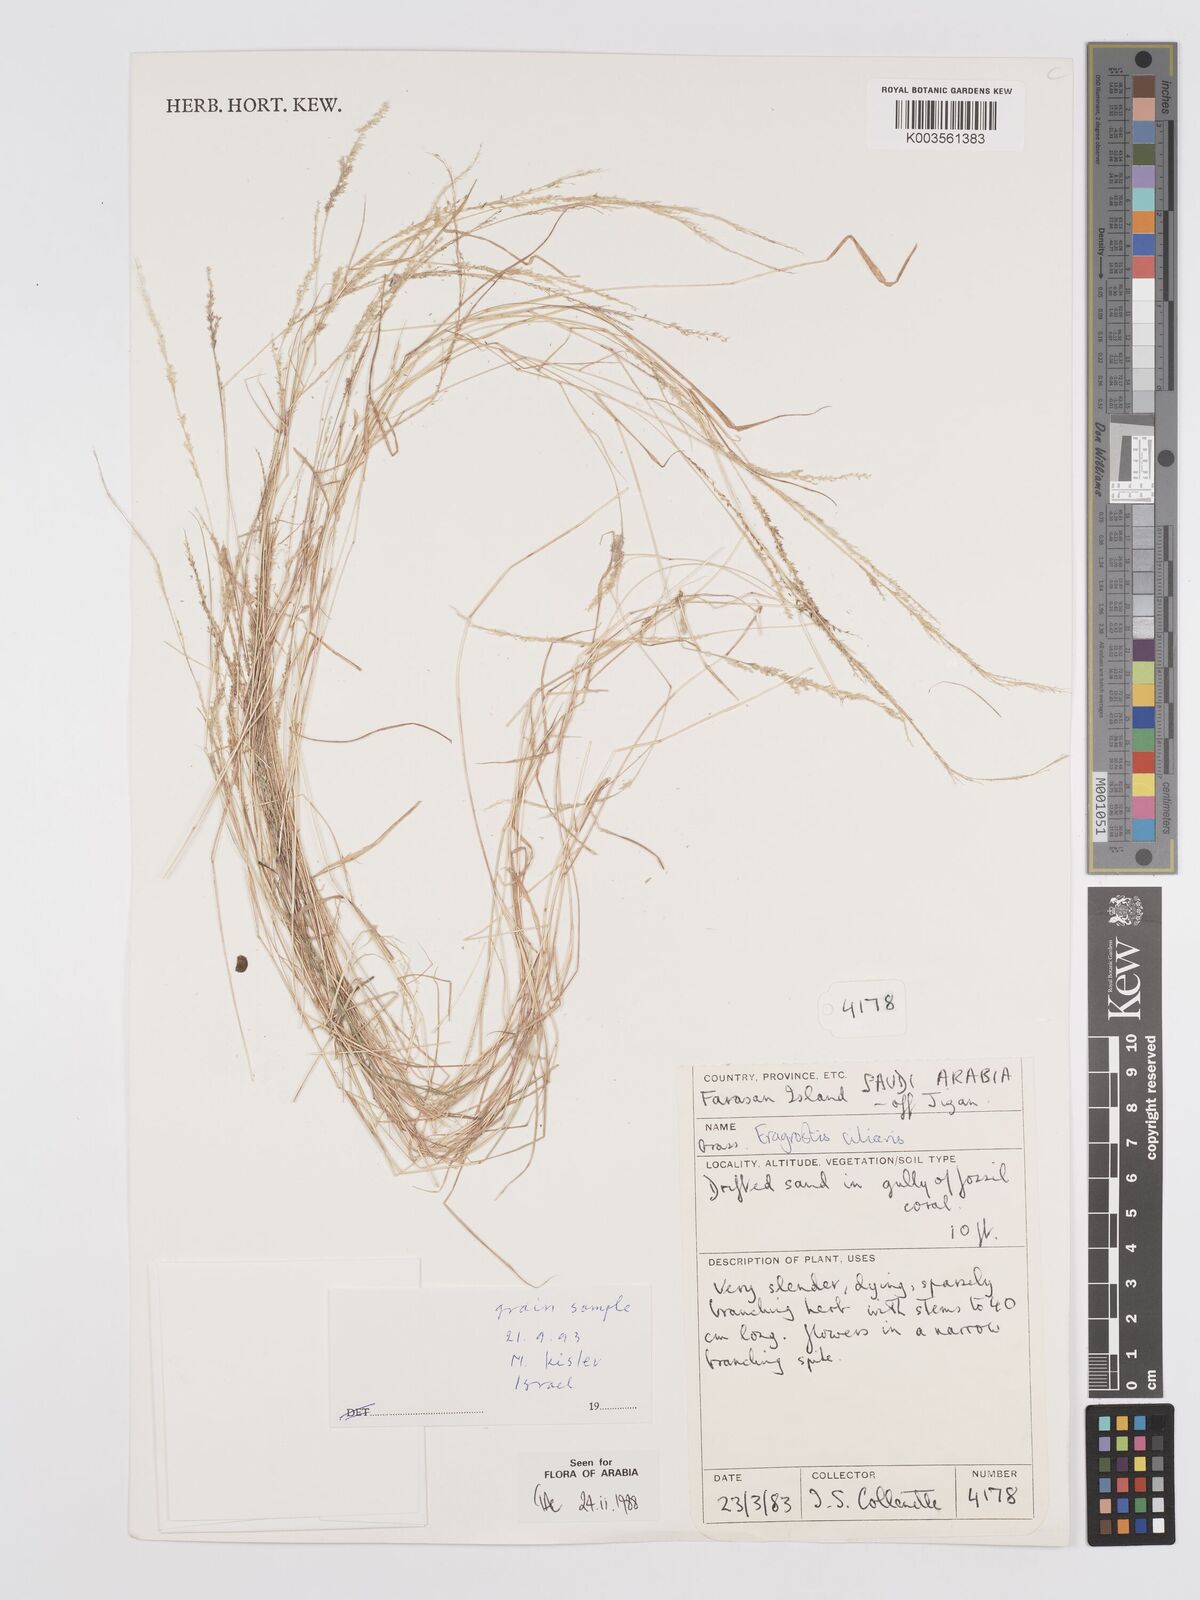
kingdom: Plantae
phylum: Tracheophyta
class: Liliopsida
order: Poales
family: Poaceae
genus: Eragrostis
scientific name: Eragrostis ciliaris
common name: Gophertail lovegrass
